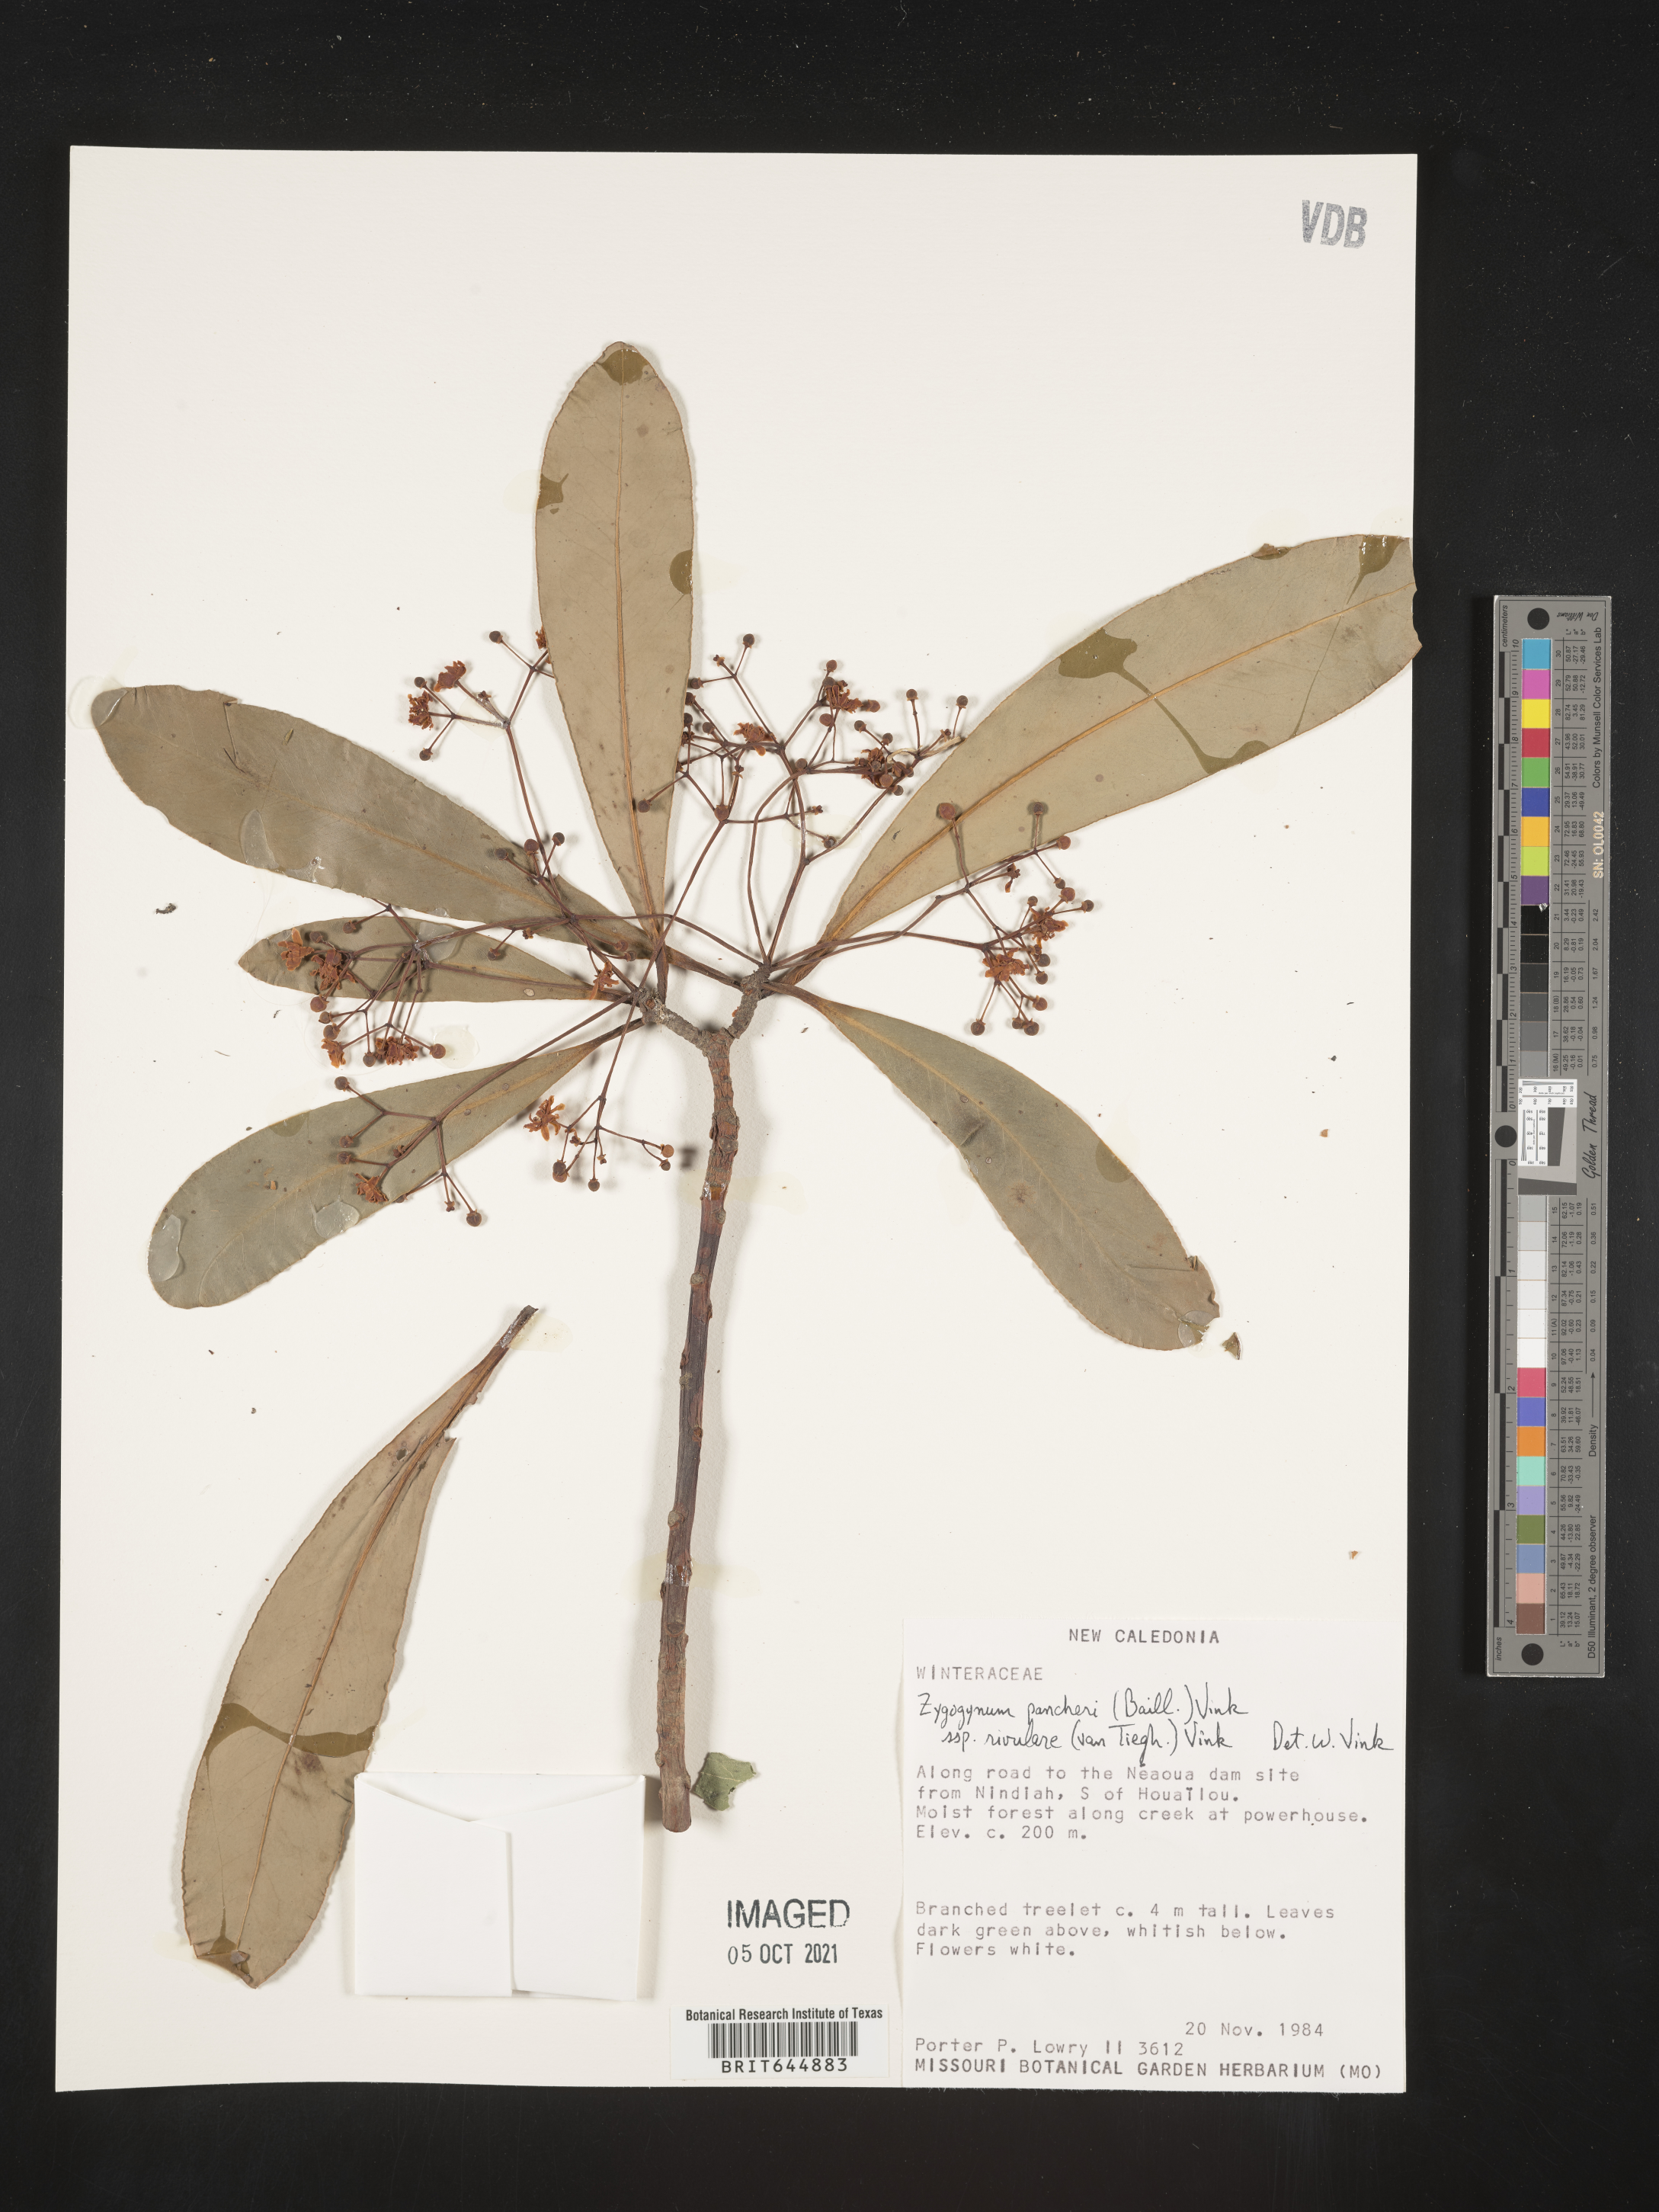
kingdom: Plantae
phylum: Tracheophyta
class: Magnoliopsida
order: Canellales
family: Winteraceae
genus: Drimys
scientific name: Drimys
